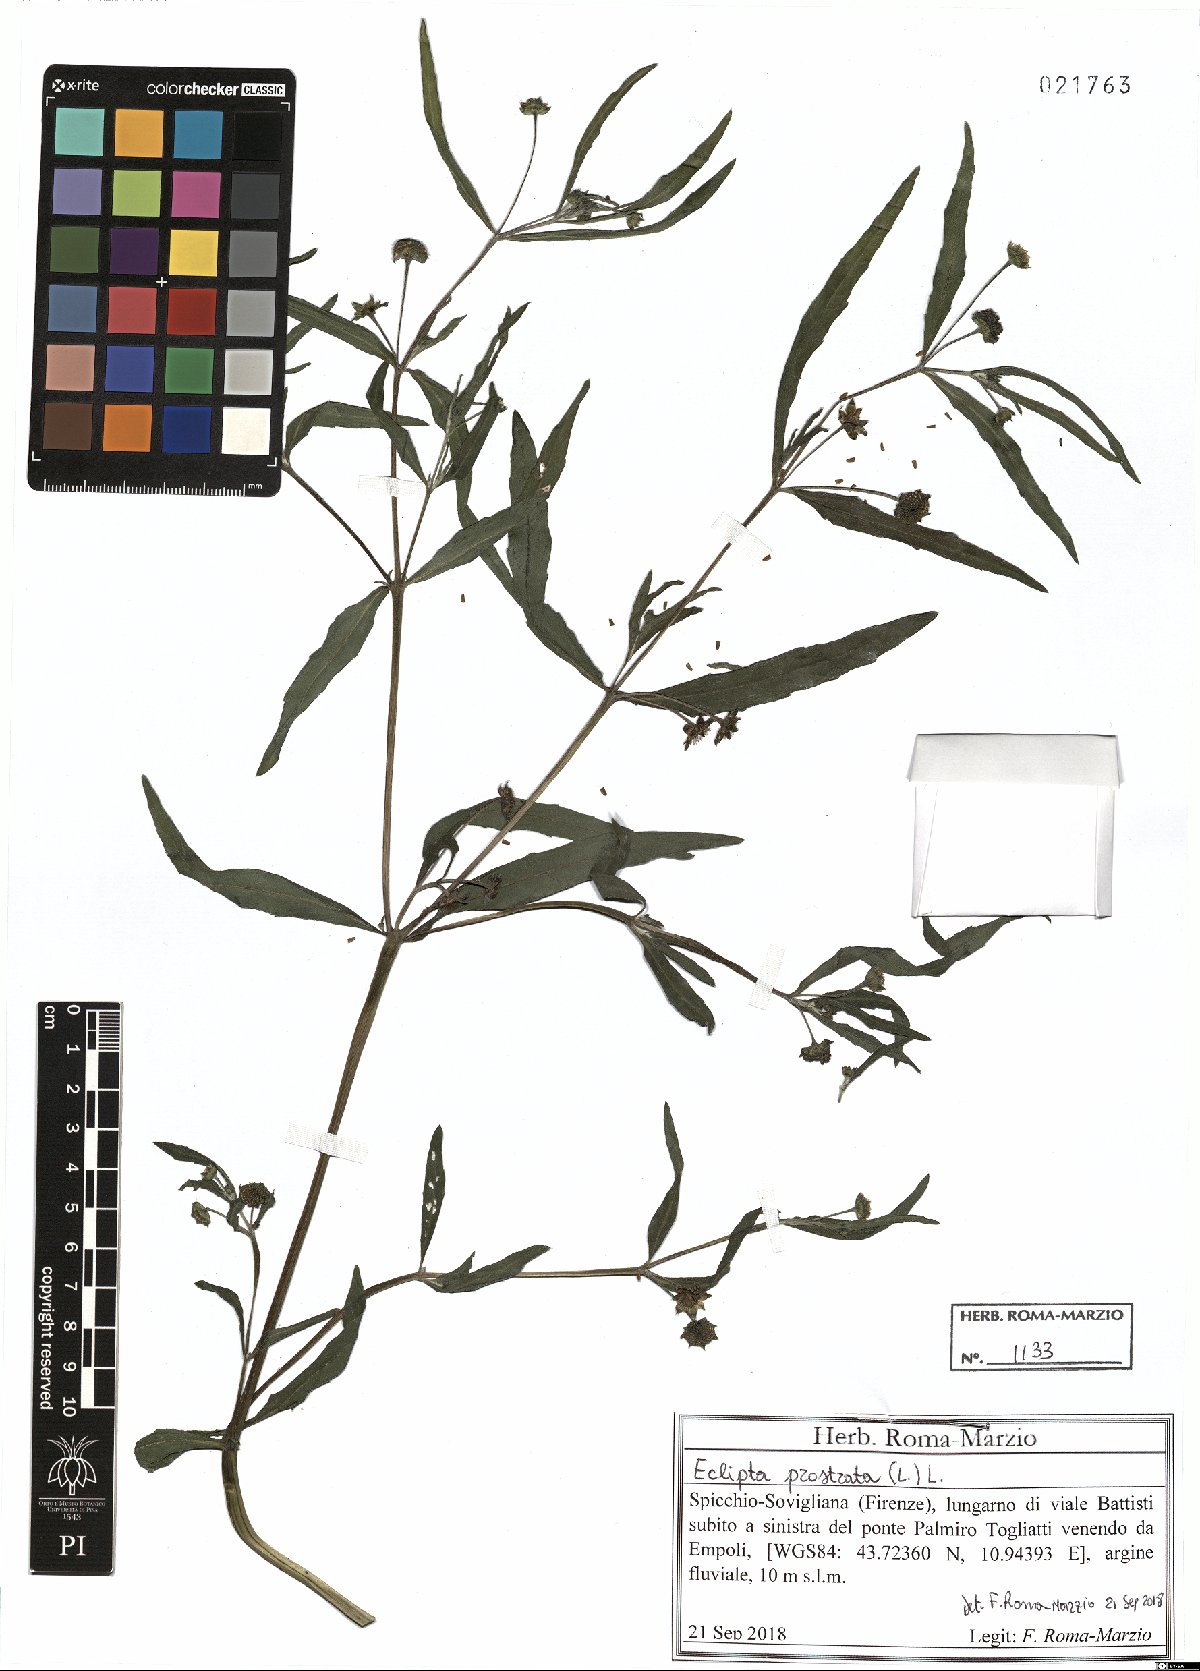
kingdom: Plantae
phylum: Tracheophyta
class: Magnoliopsida
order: Asterales
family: Asteraceae
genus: Eclipta
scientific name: Eclipta prostrata
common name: False daisy
